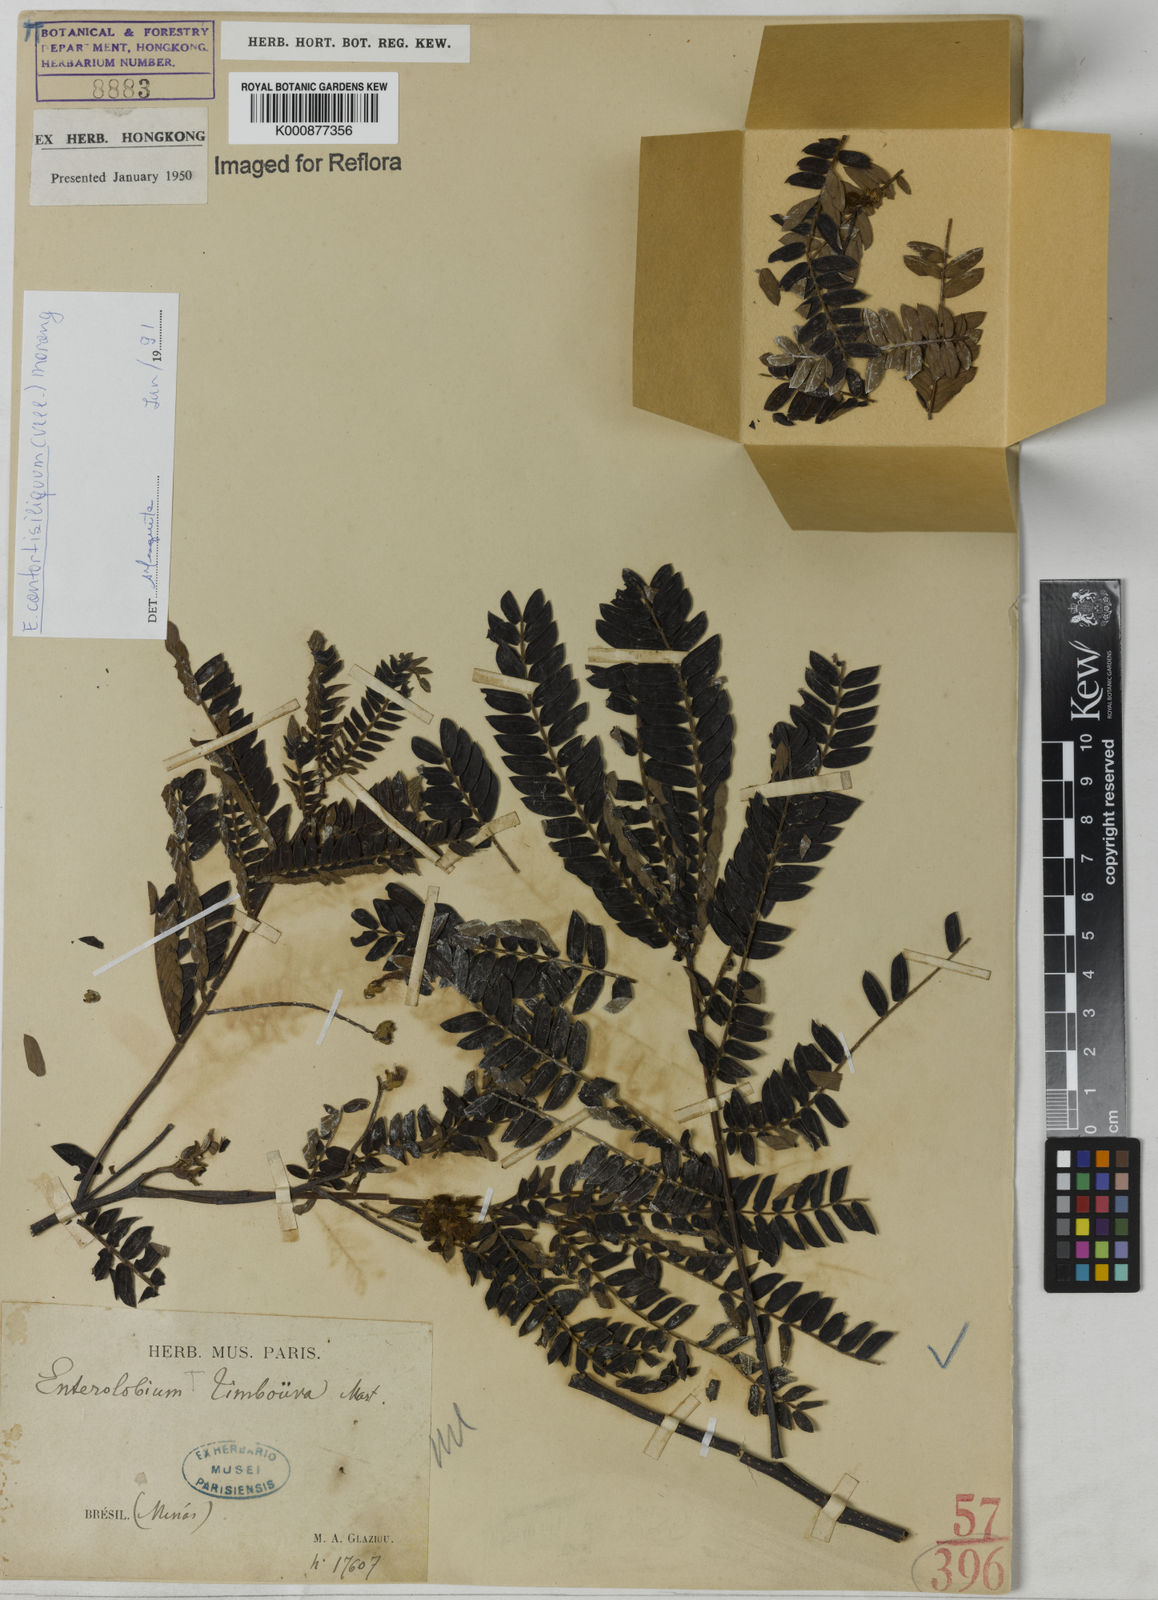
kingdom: Plantae
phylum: Tracheophyta
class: Magnoliopsida
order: Fabales
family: Fabaceae
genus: Enterolobium
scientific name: Enterolobium timbouva
